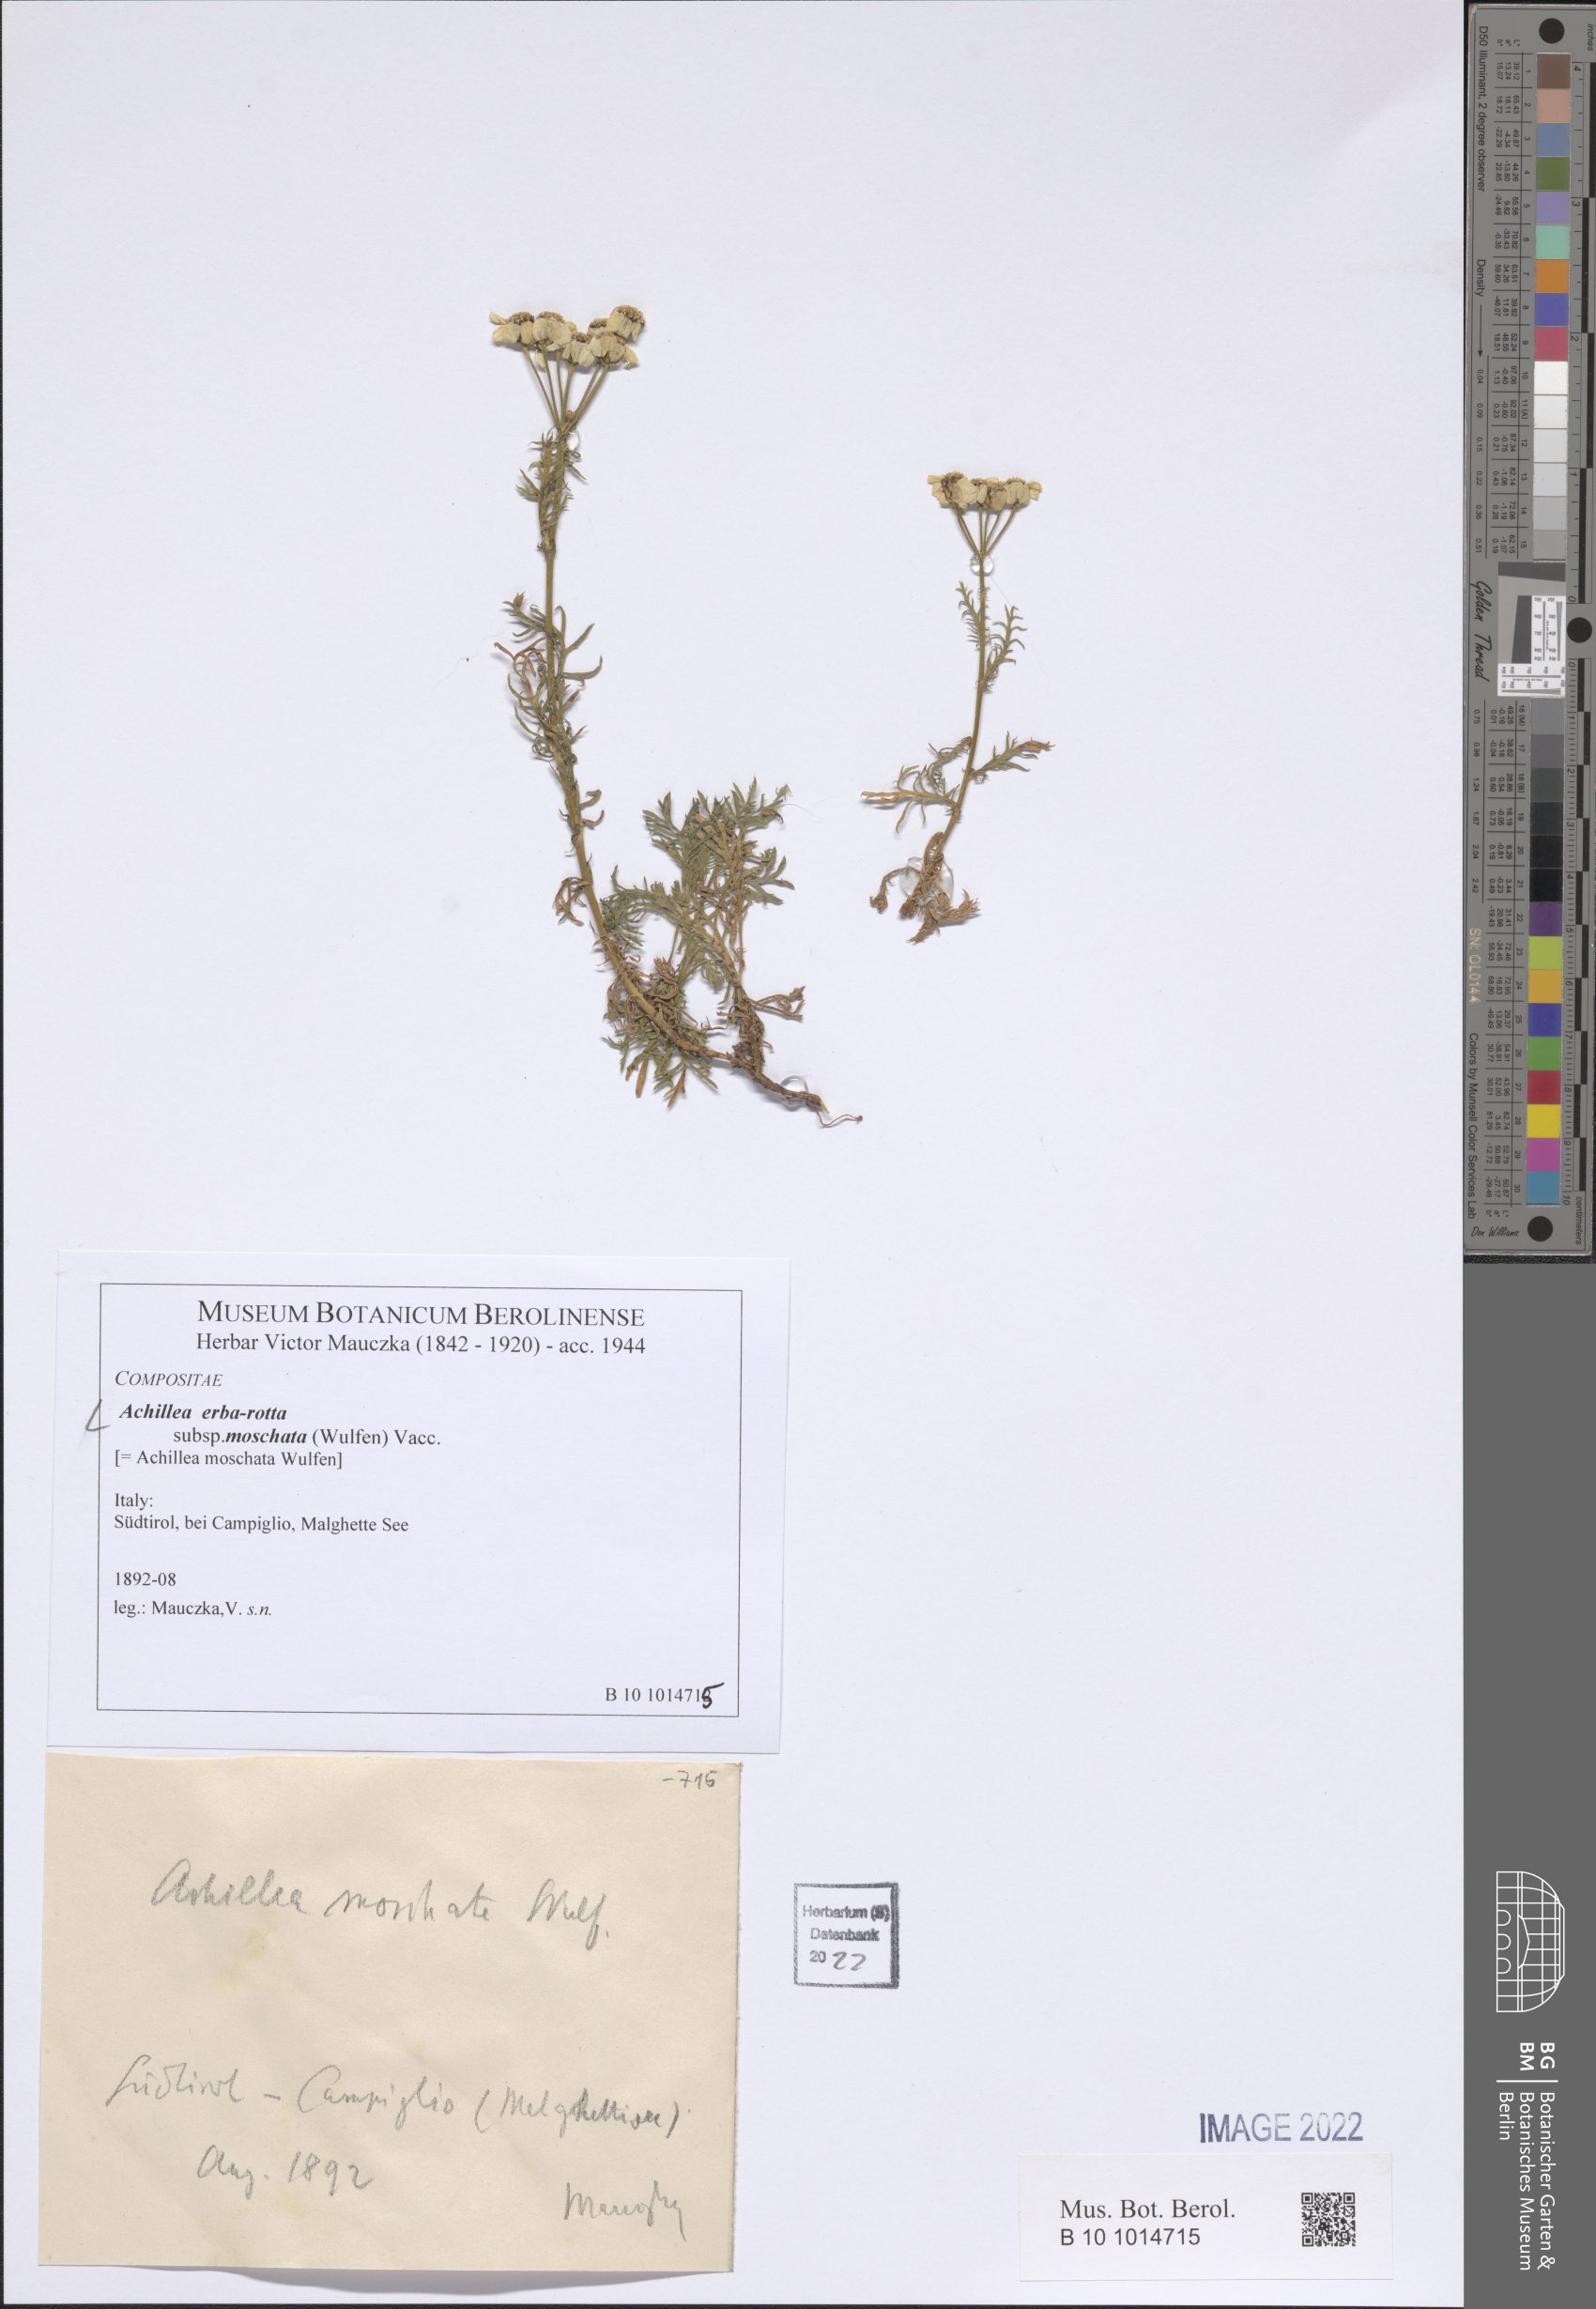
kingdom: Plantae
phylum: Tracheophyta
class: Magnoliopsida
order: Asterales
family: Asteraceae
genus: Achillea
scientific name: Achillea erba-rotta
